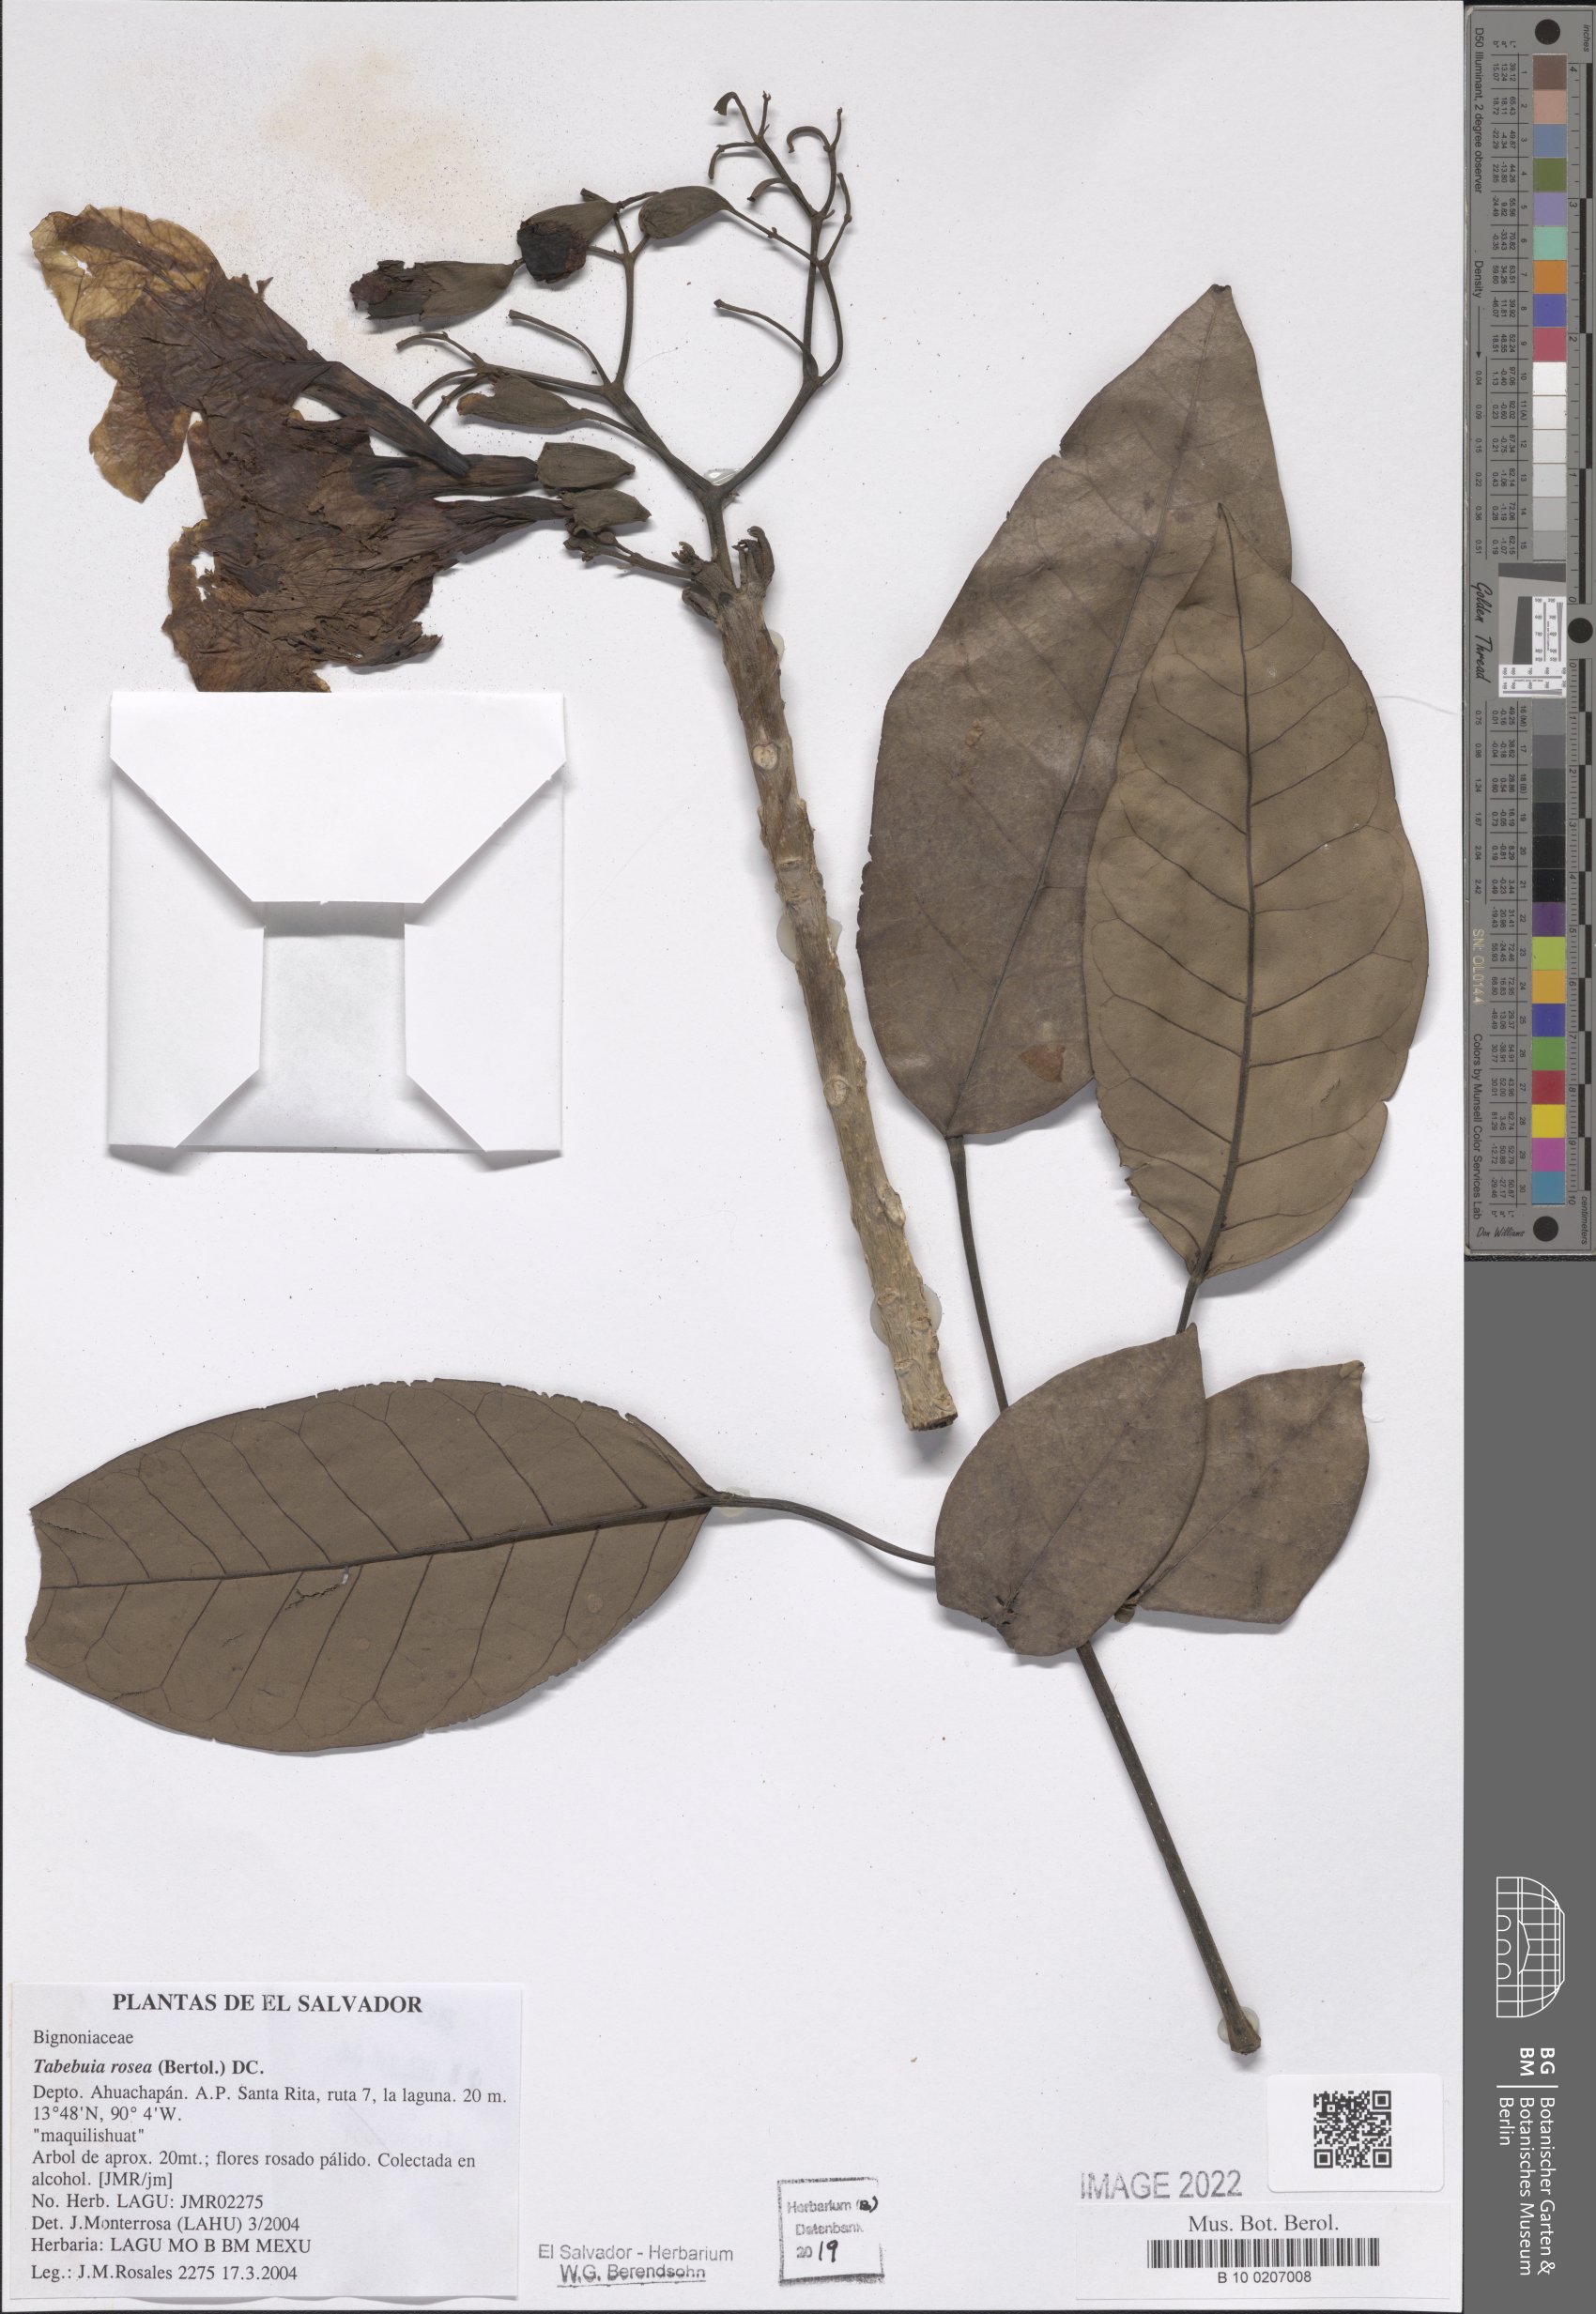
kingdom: Plantae
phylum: Tracheophyta
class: Magnoliopsida
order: Lamiales
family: Bignoniaceae
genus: Tabebuia
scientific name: Tabebuia rosea
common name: Pink poui
